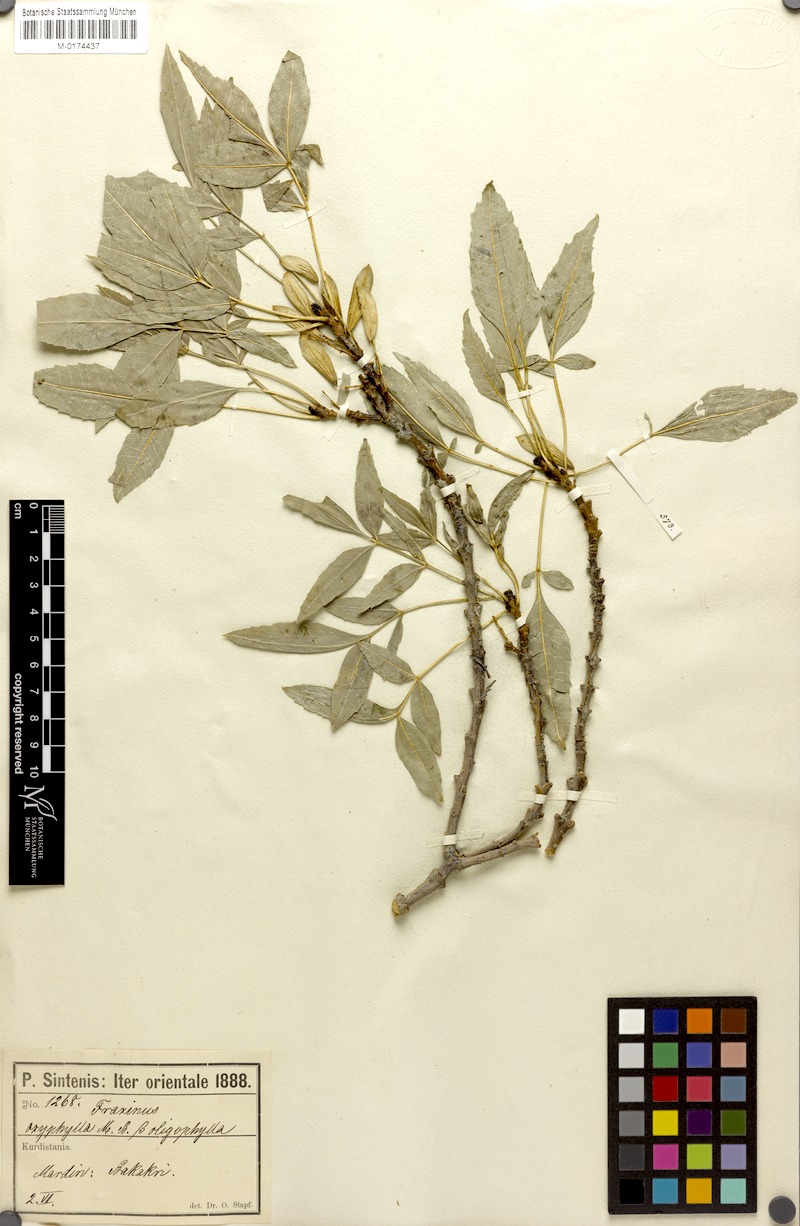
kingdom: Plantae
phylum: Tracheophyta
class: Magnoliopsida
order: Lamiales
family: Oleaceae
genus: Fraxinus
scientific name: Fraxinus angustifolia
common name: Narrow-leafed ash
